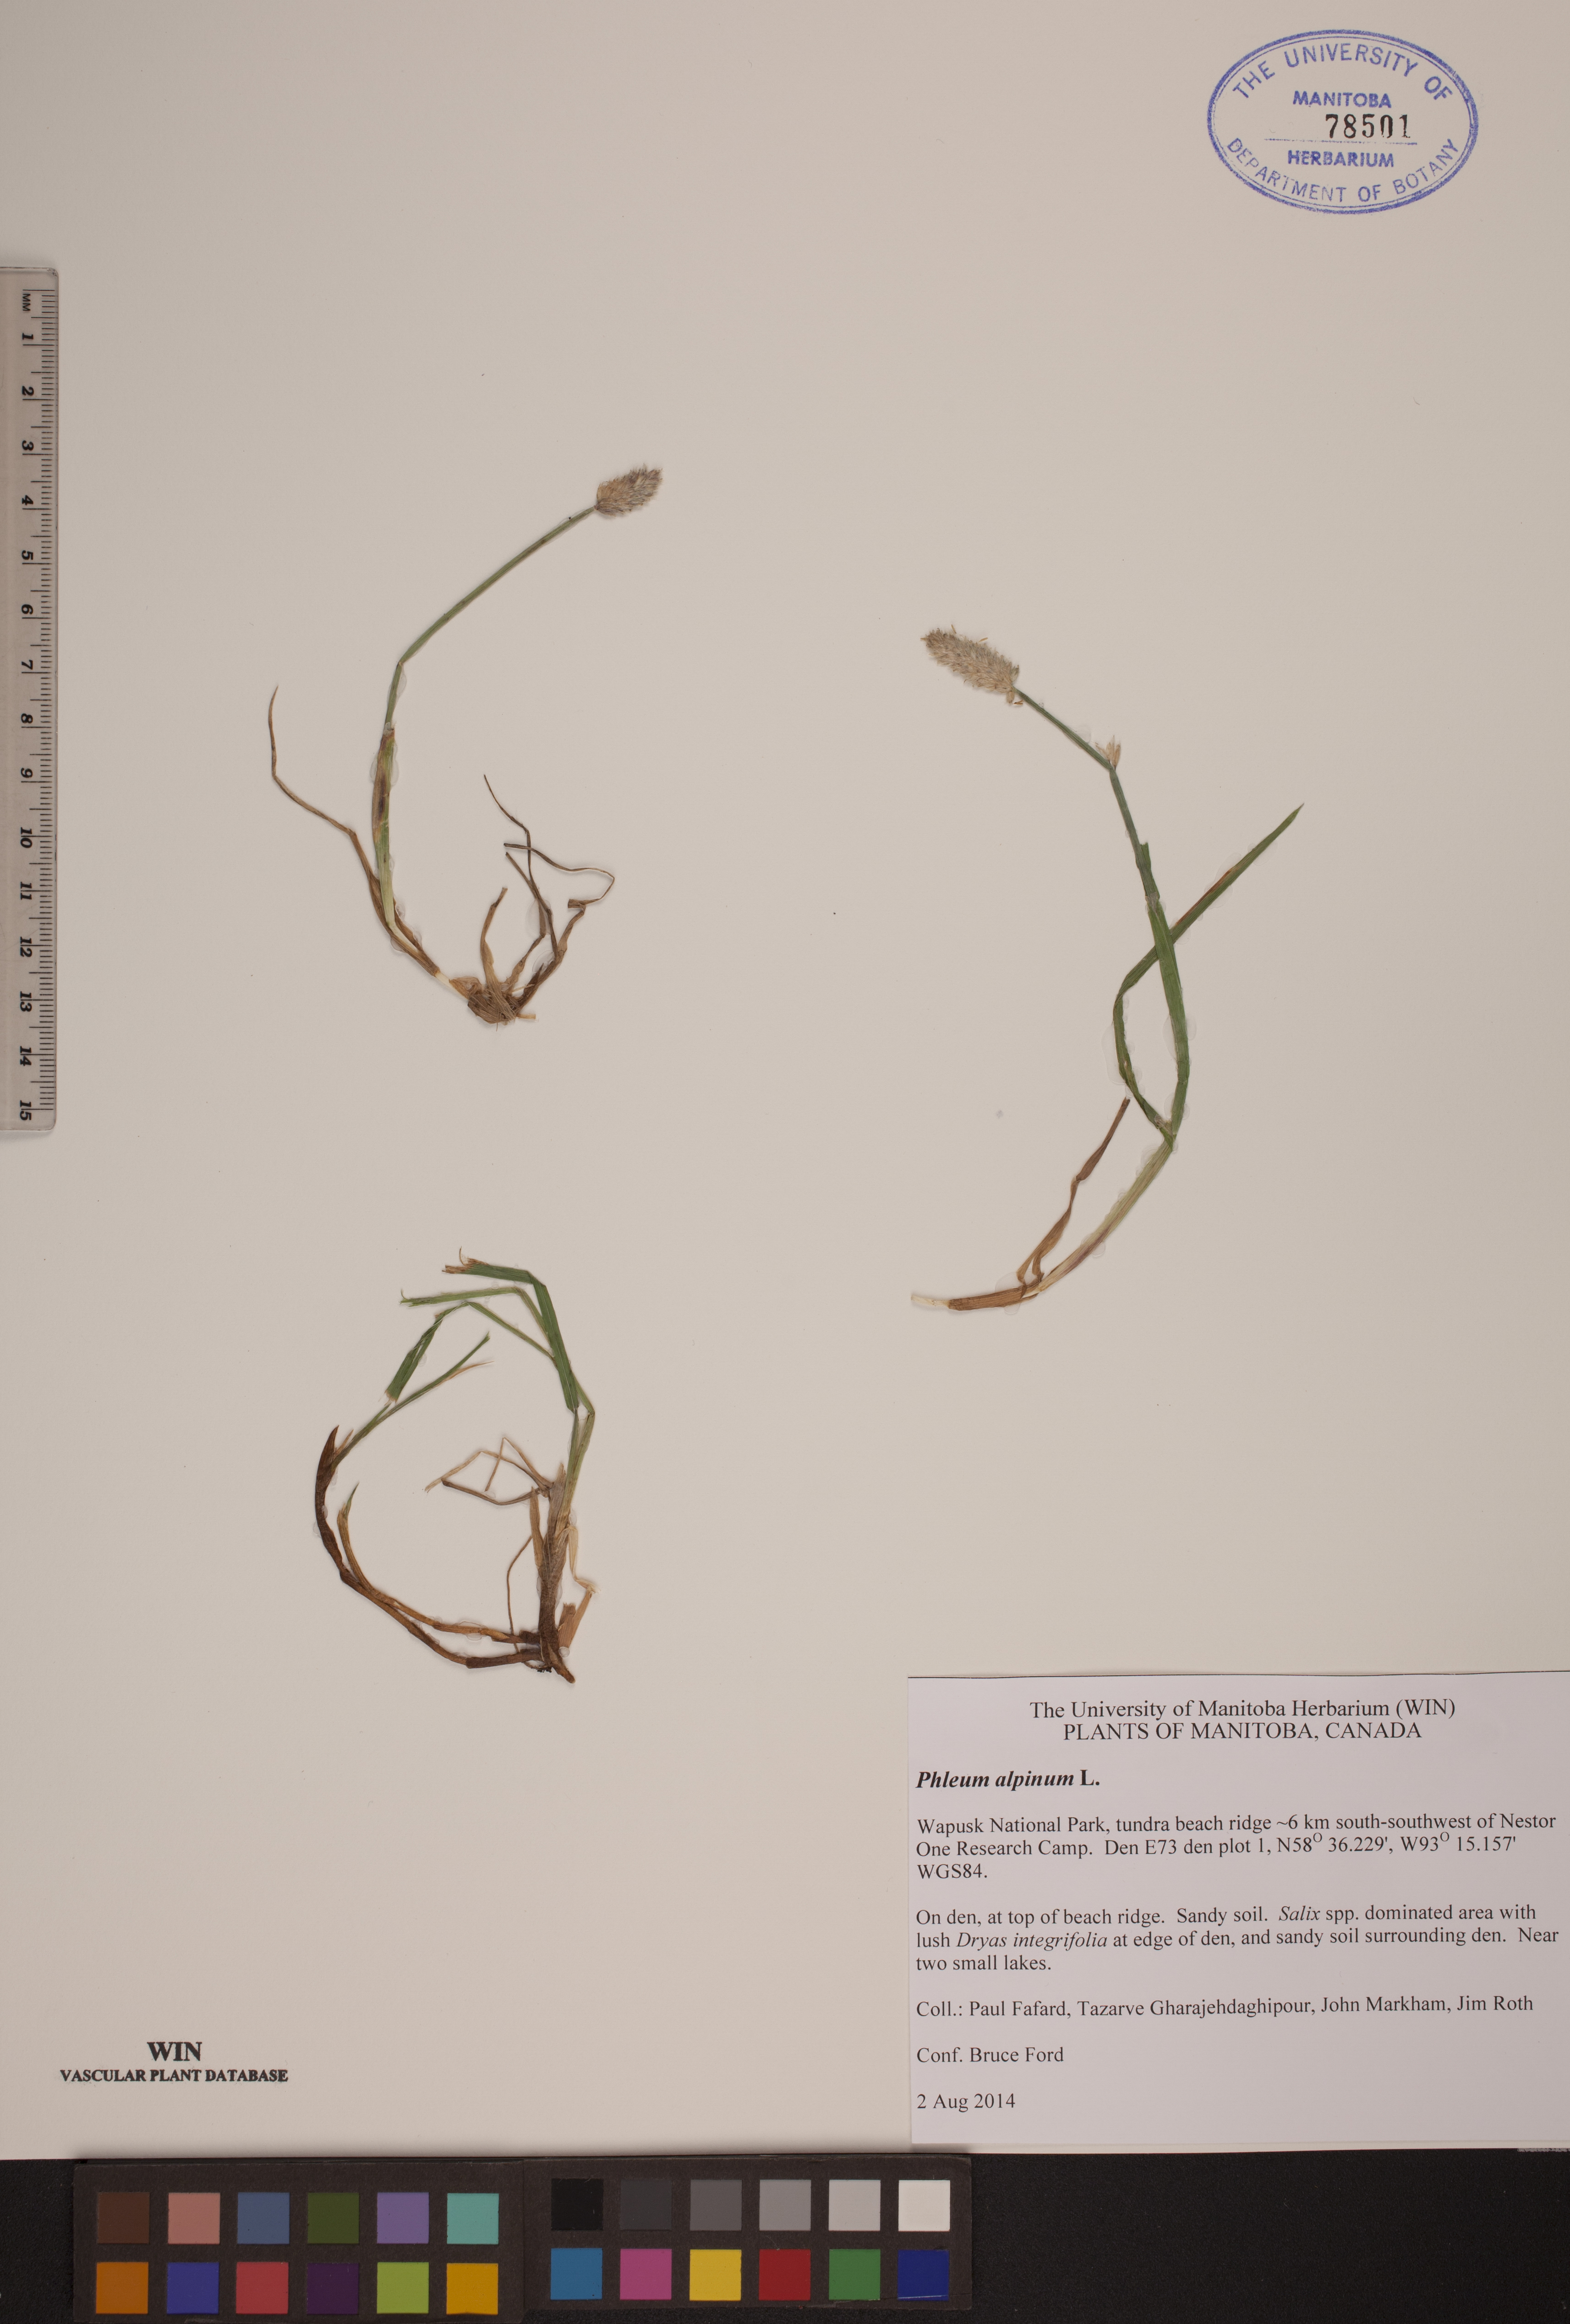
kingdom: Plantae
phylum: Tracheophyta
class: Liliopsida
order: Poales
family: Poaceae
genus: Phleum
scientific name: Phleum alpinum
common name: Alpine cat's-tail
